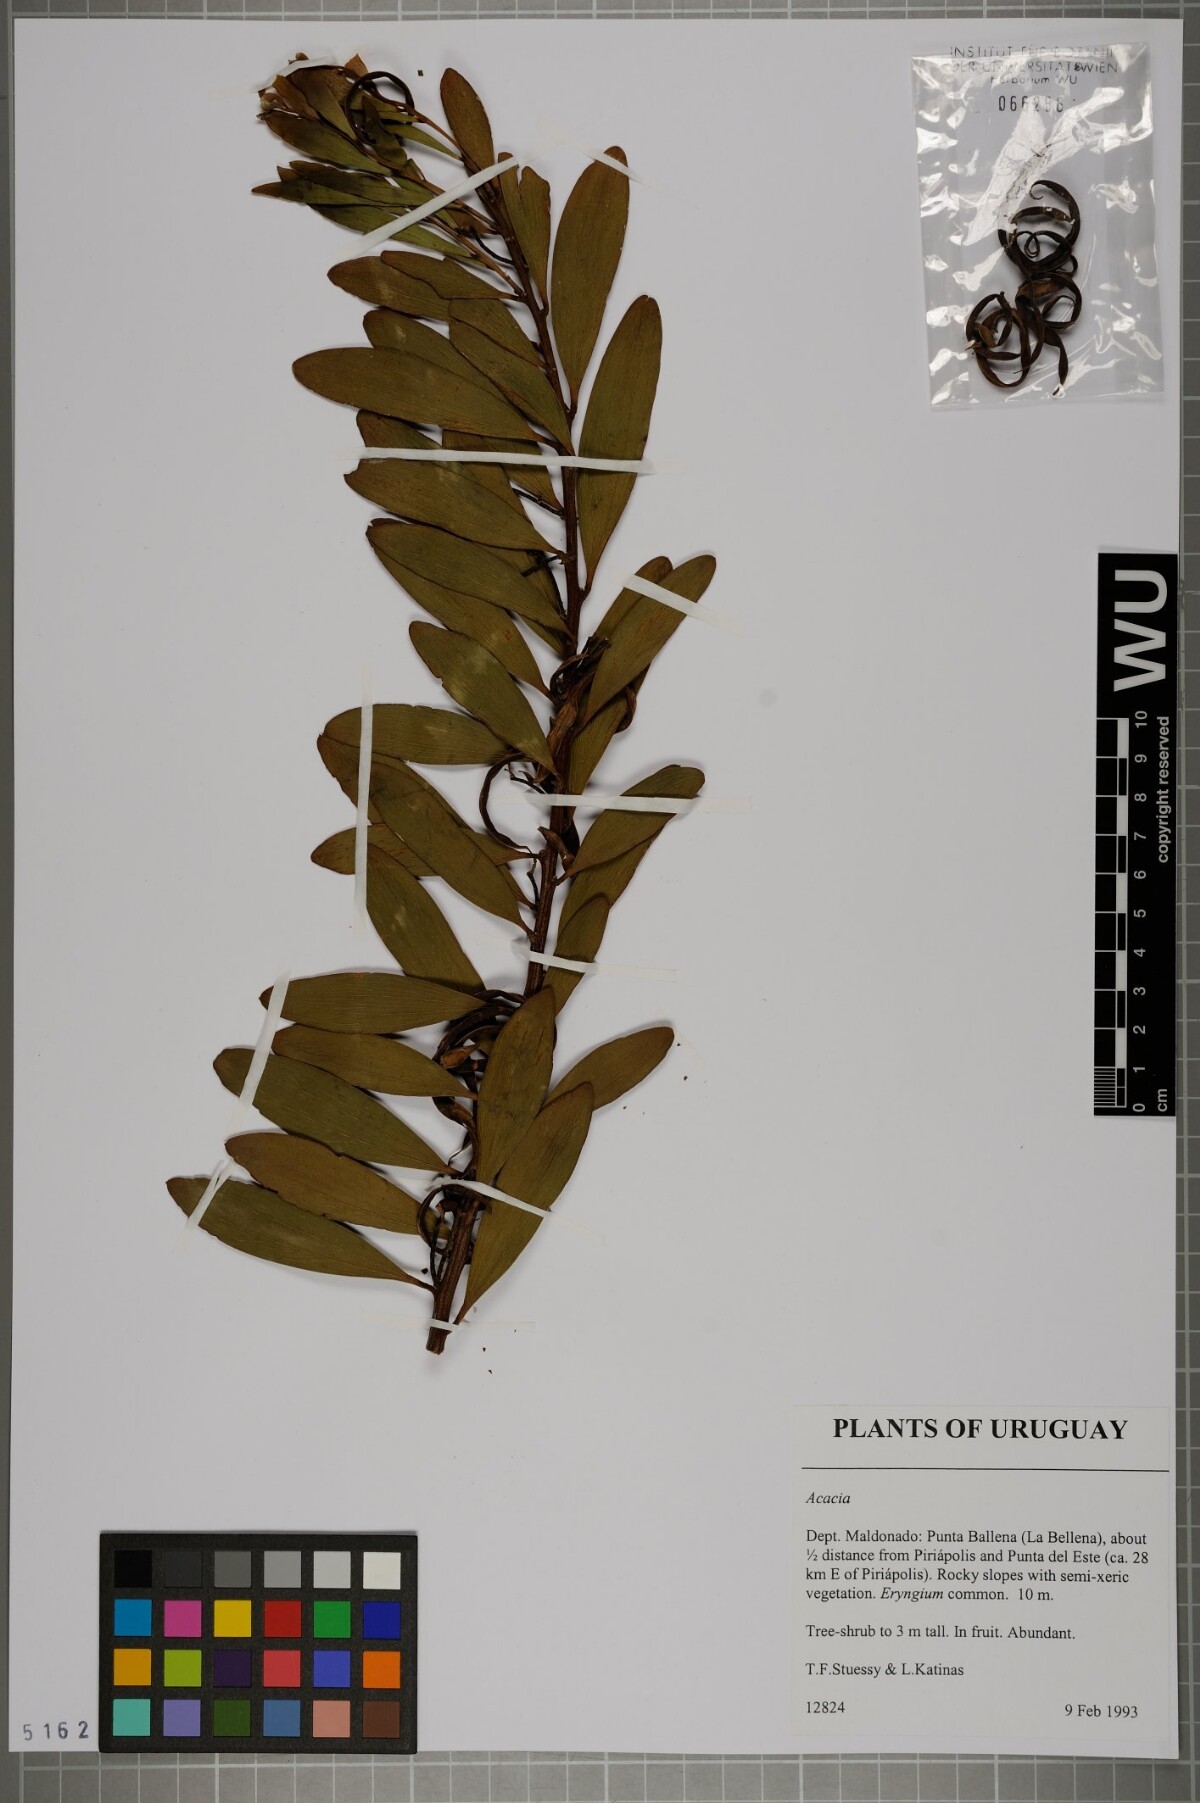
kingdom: Plantae
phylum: Tracheophyta
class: Magnoliopsida
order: Fabales
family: Fabaceae
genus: Acacia
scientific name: Acacia
